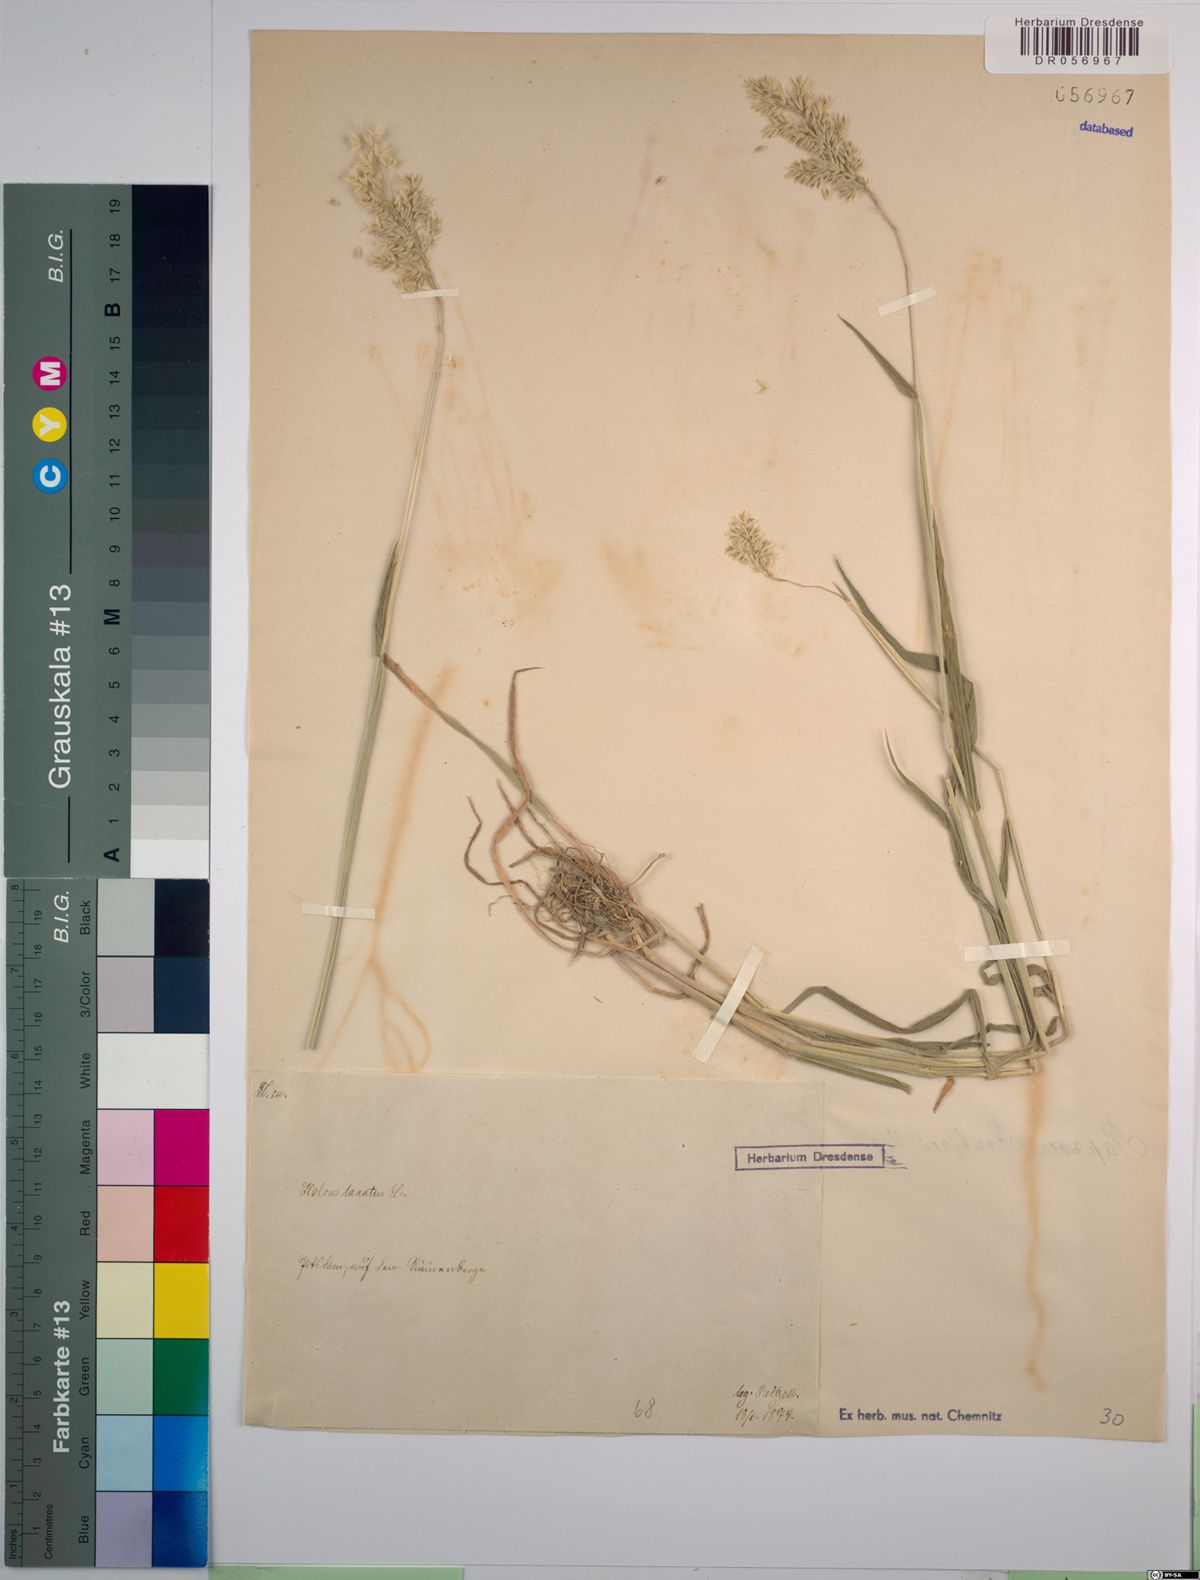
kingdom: Plantae
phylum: Tracheophyta
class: Liliopsida
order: Poales
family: Poaceae
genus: Holcus
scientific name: Holcus lanatus
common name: Yorkshire-fog
